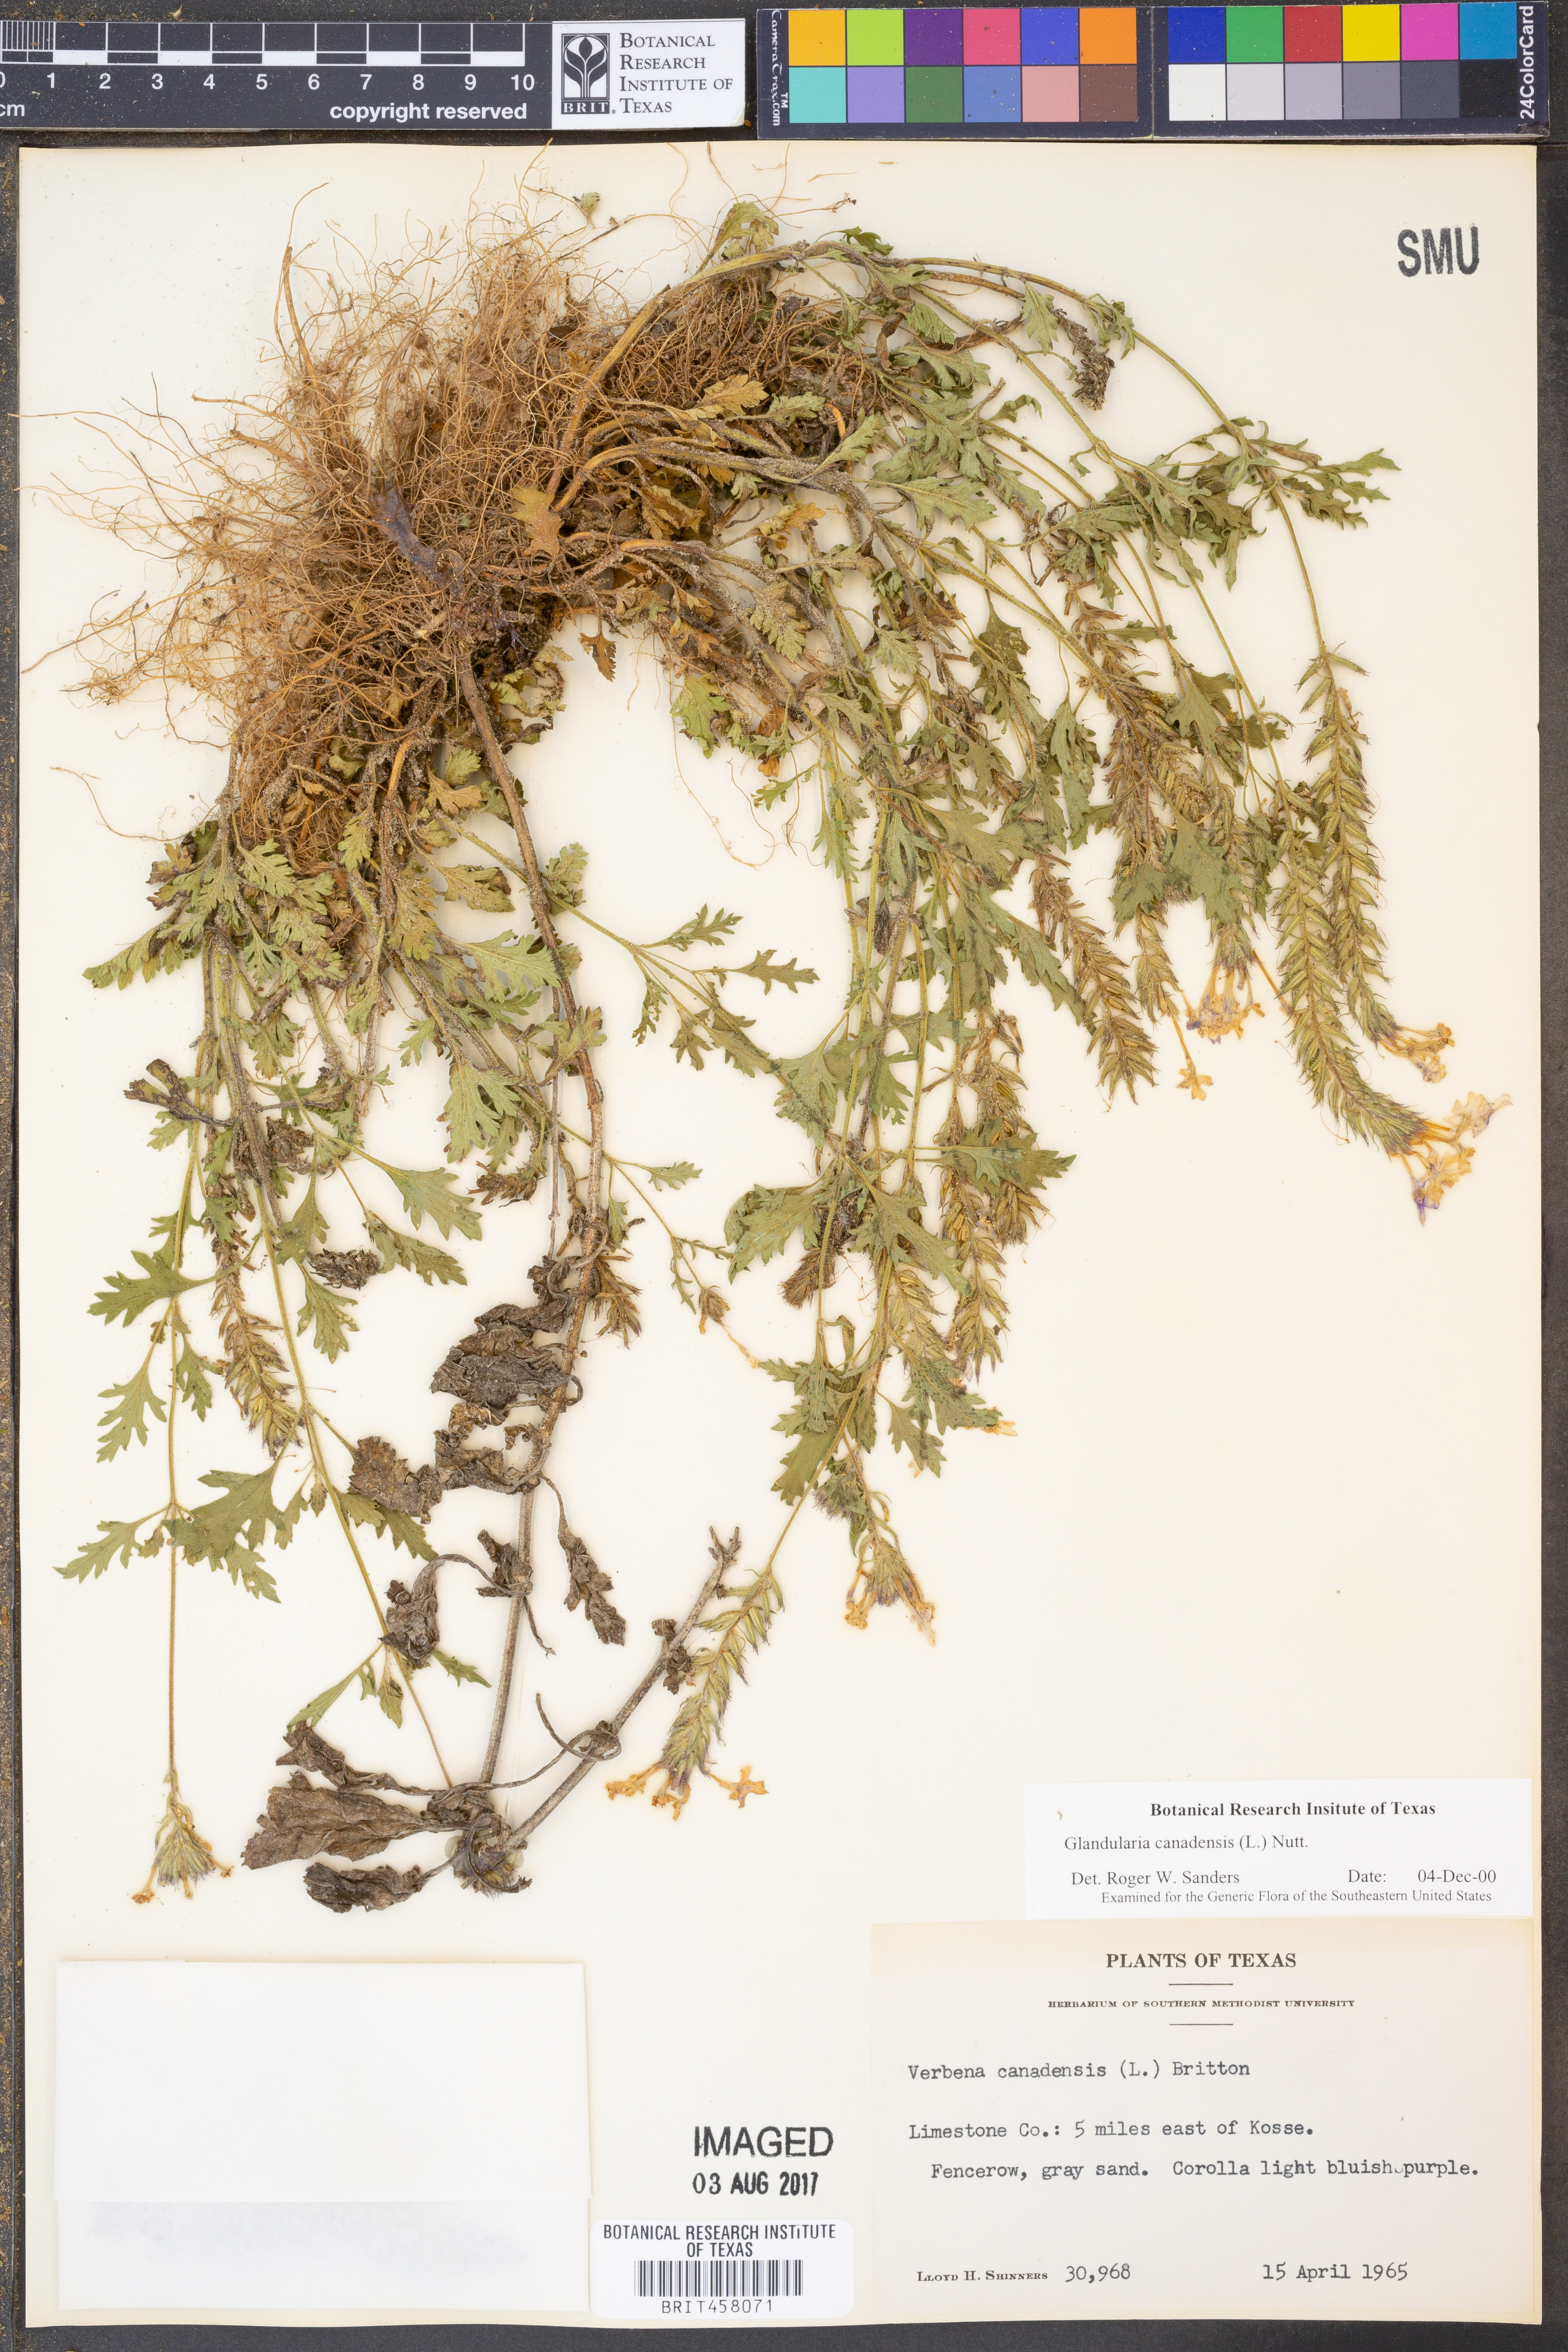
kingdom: Plantae
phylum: Tracheophyta
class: Magnoliopsida
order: Lamiales
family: Verbenaceae
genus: Verbena
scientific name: Verbena canadensis
